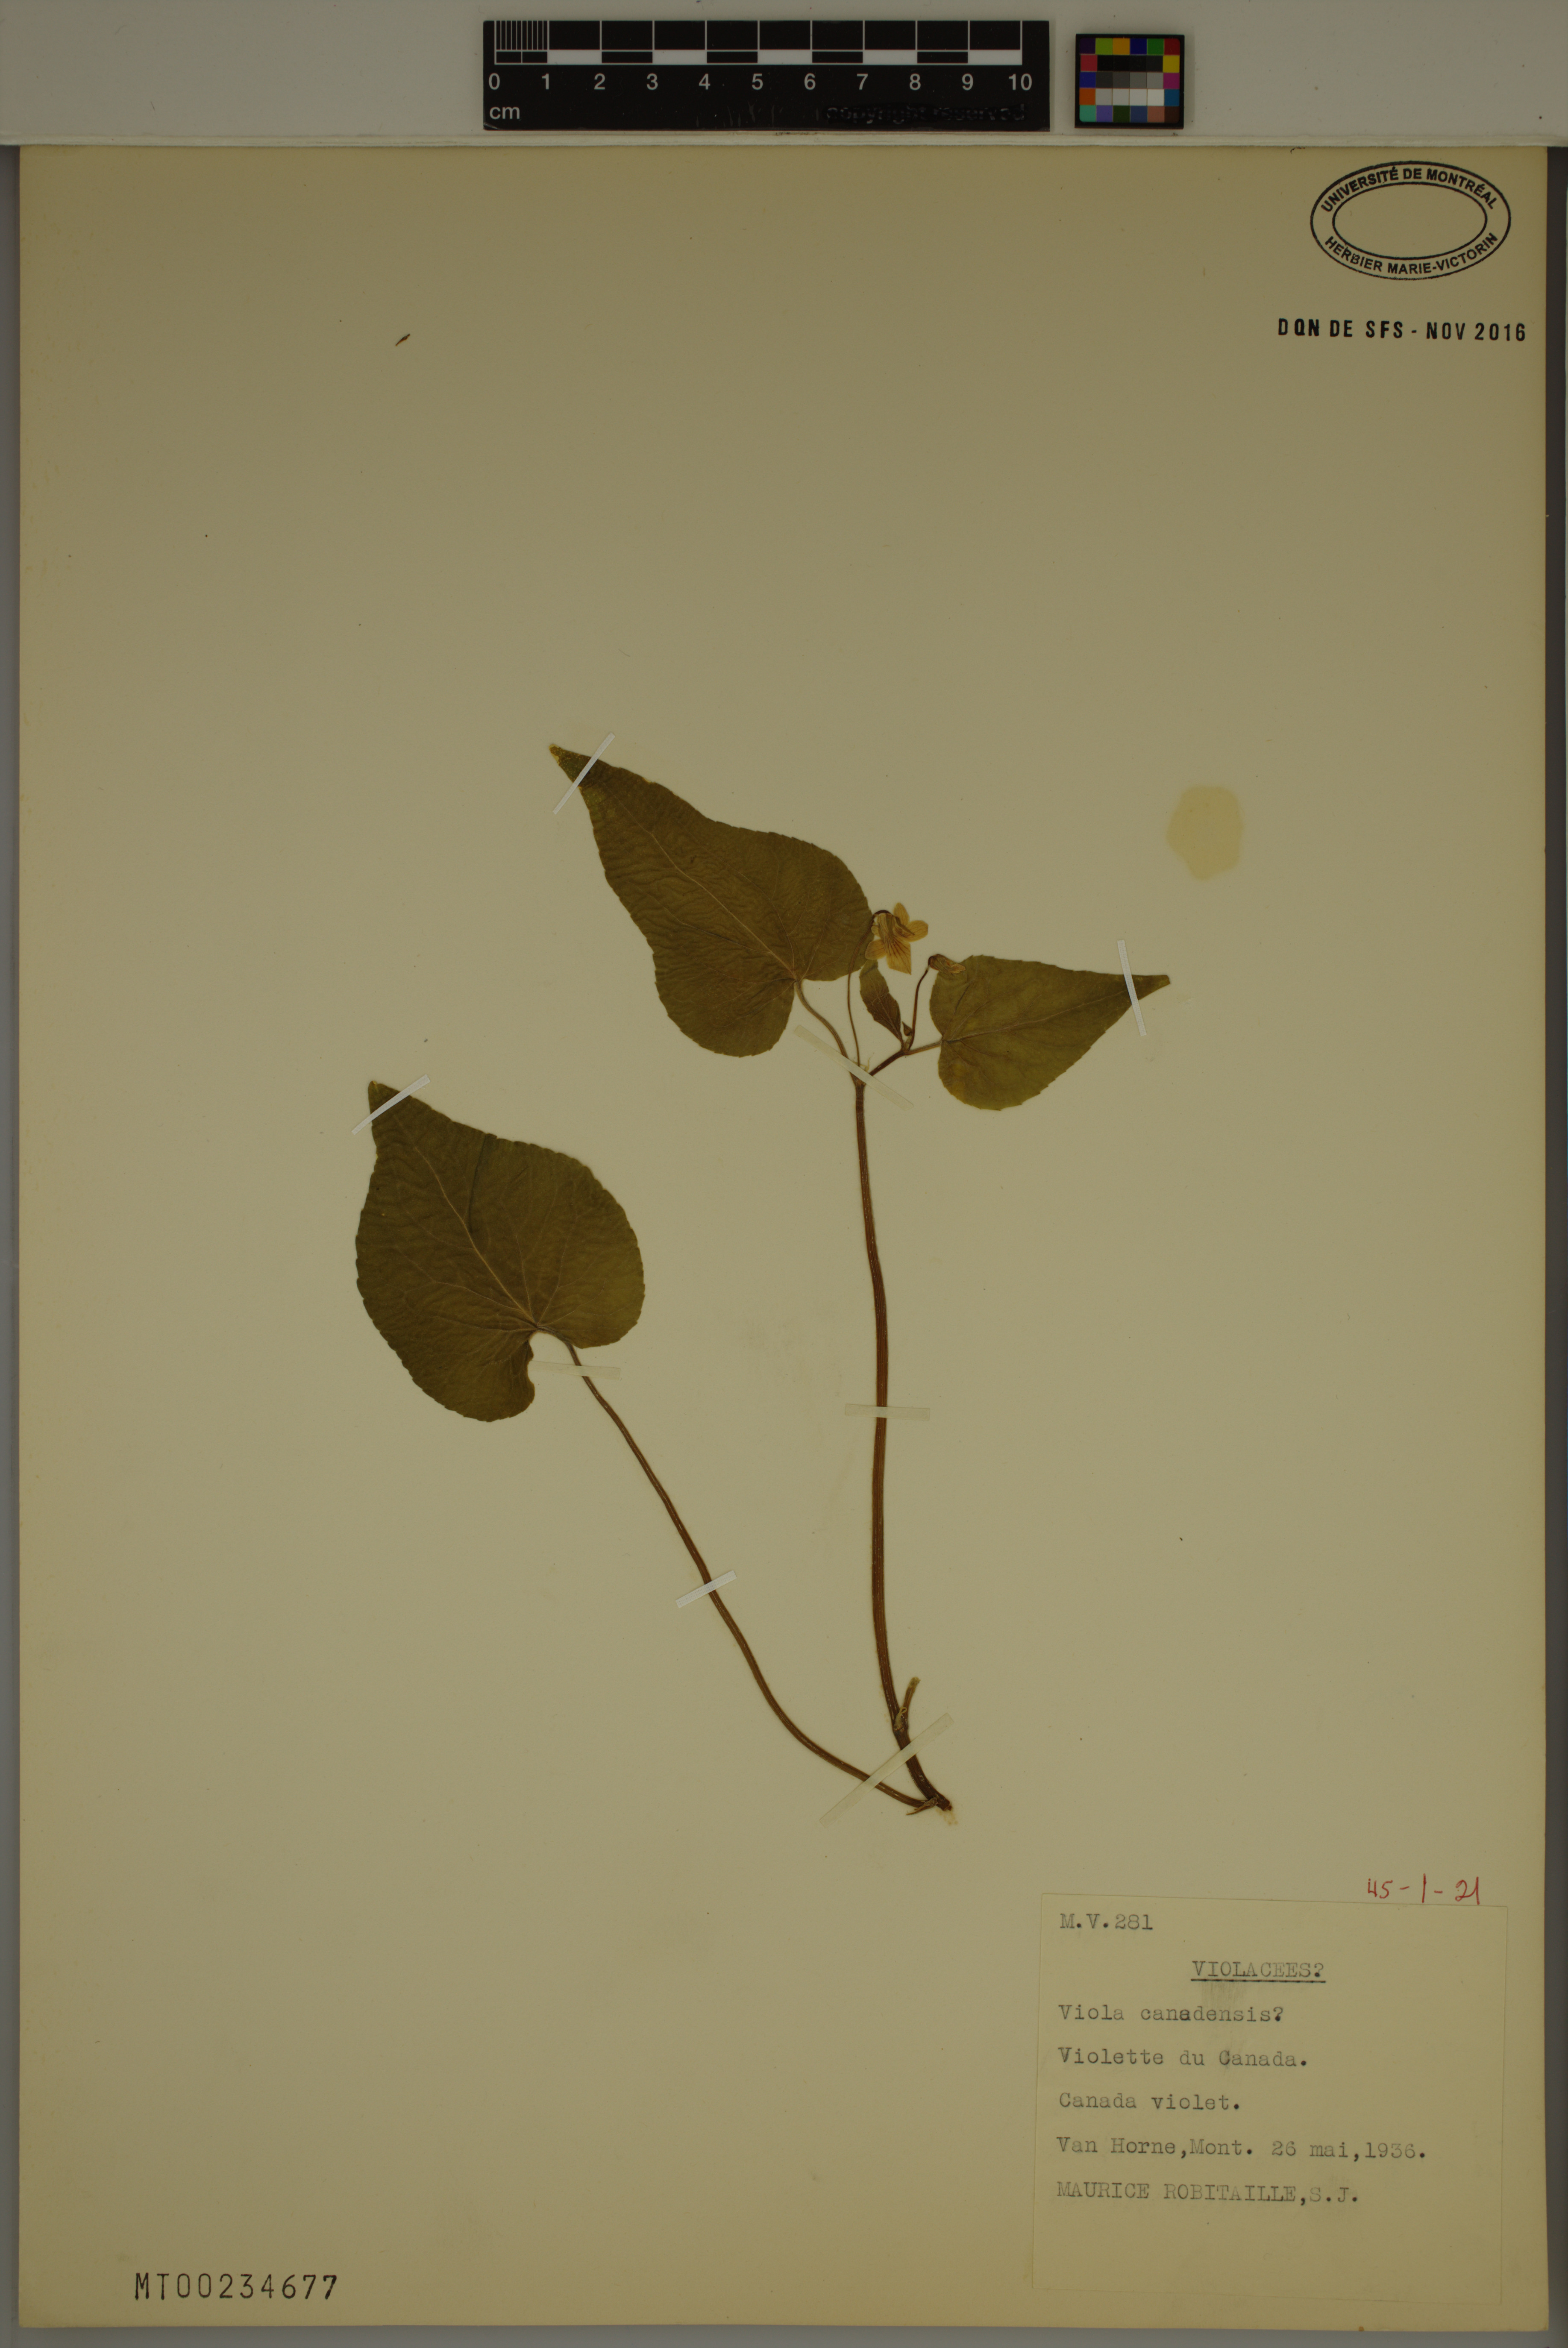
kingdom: Plantae
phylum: Tracheophyta
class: Magnoliopsida
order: Malpighiales
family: Violaceae
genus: Viola
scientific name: Viola canadensis
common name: Canada violet
